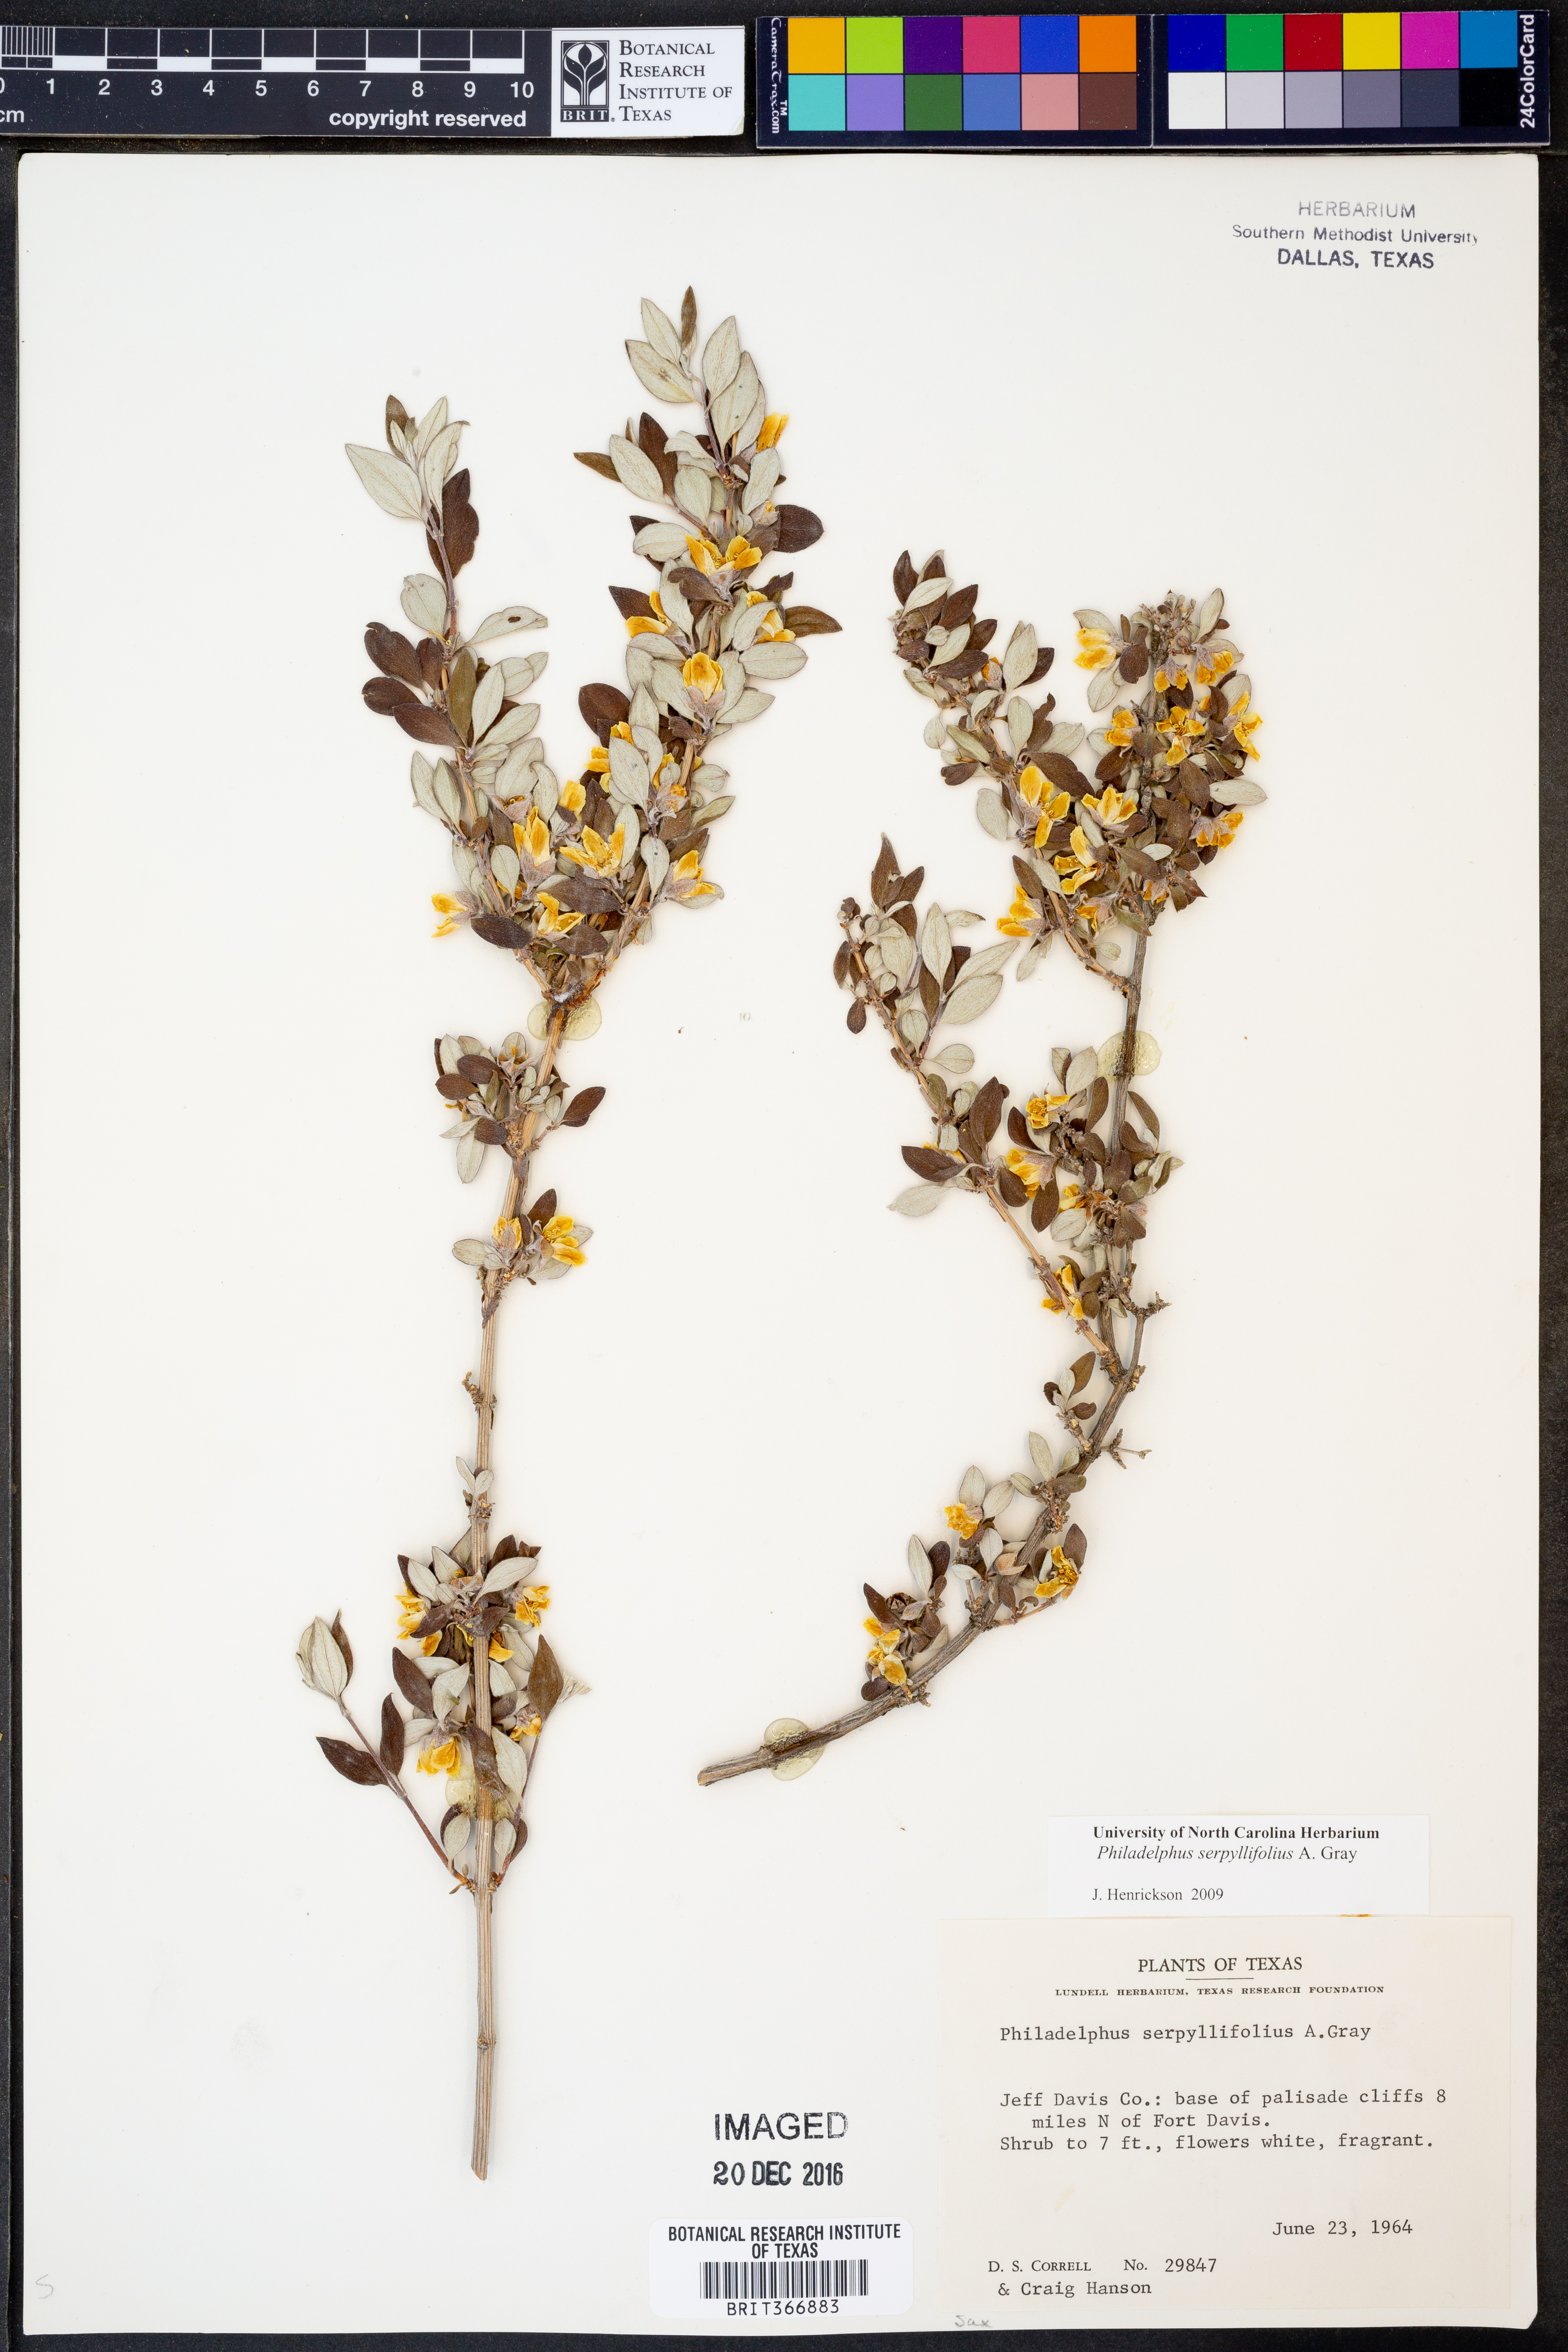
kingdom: Plantae
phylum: Tracheophyta
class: Magnoliopsida
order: Cornales
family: Hydrangeaceae
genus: Philadelphus
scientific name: Philadelphus serpyllifolius
